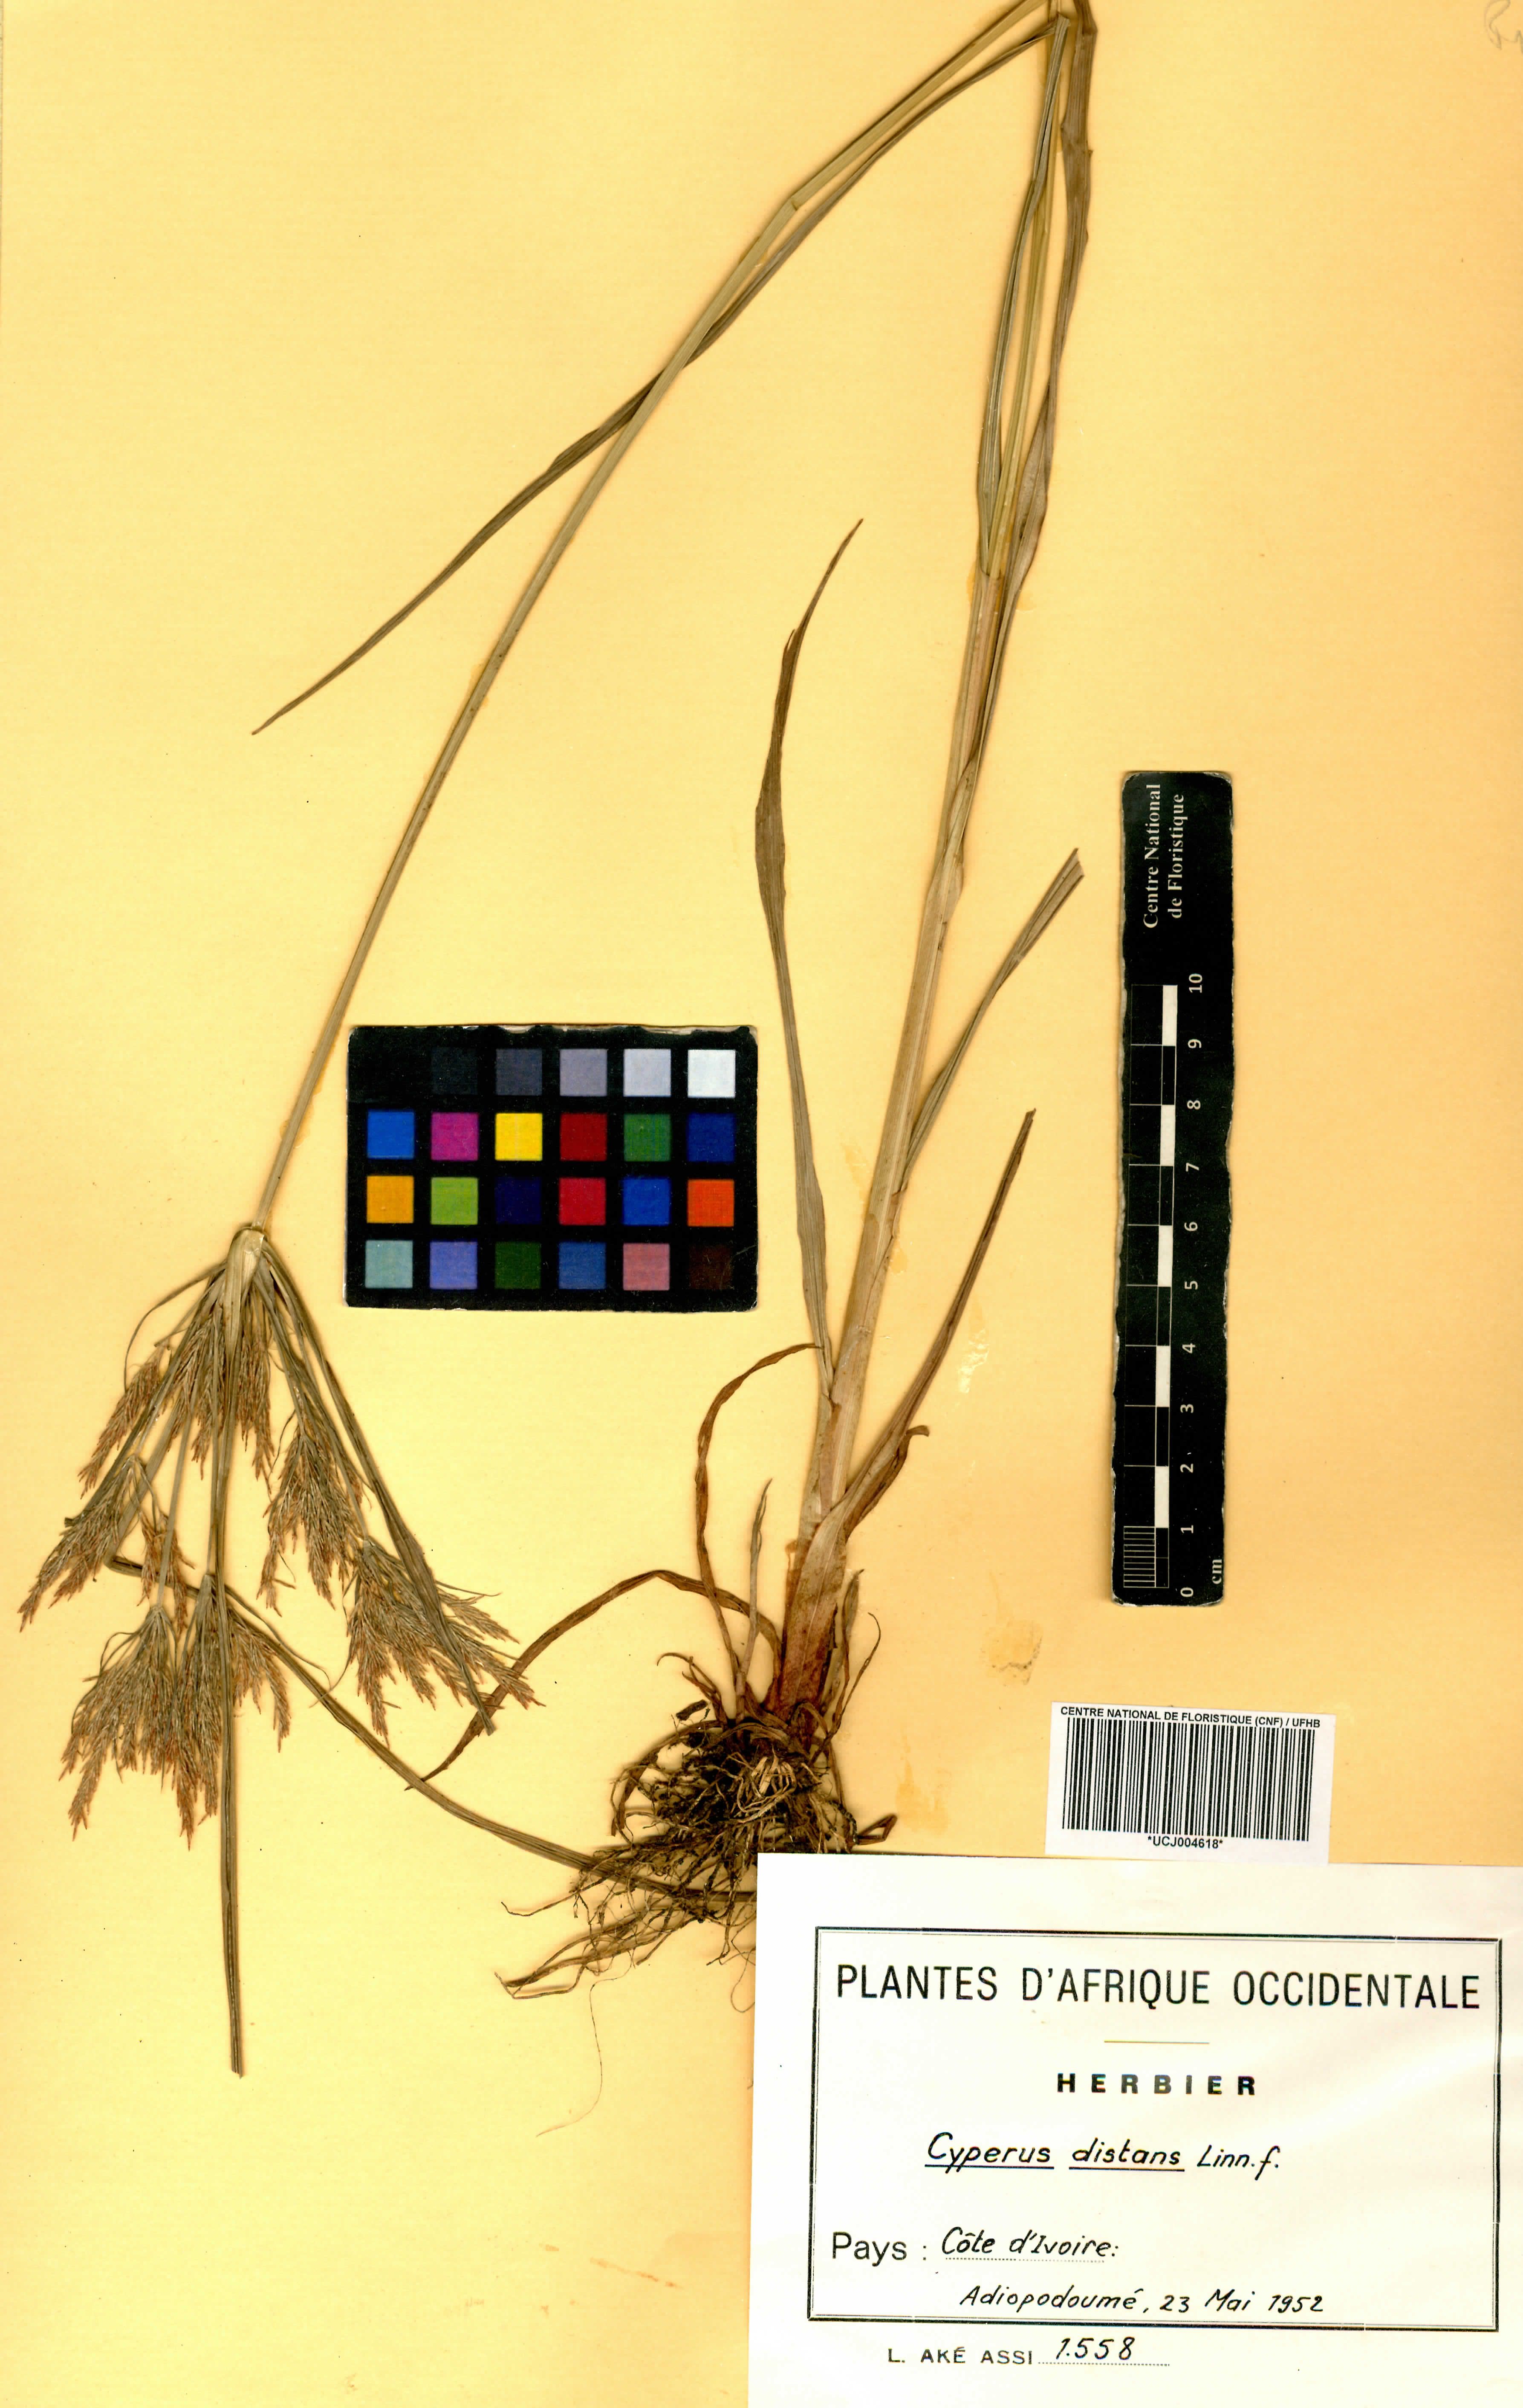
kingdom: Plantae
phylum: Tracheophyta
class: Liliopsida
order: Poales
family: Cyperaceae
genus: Cyperus
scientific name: Cyperus distans
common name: Slender cyperus
